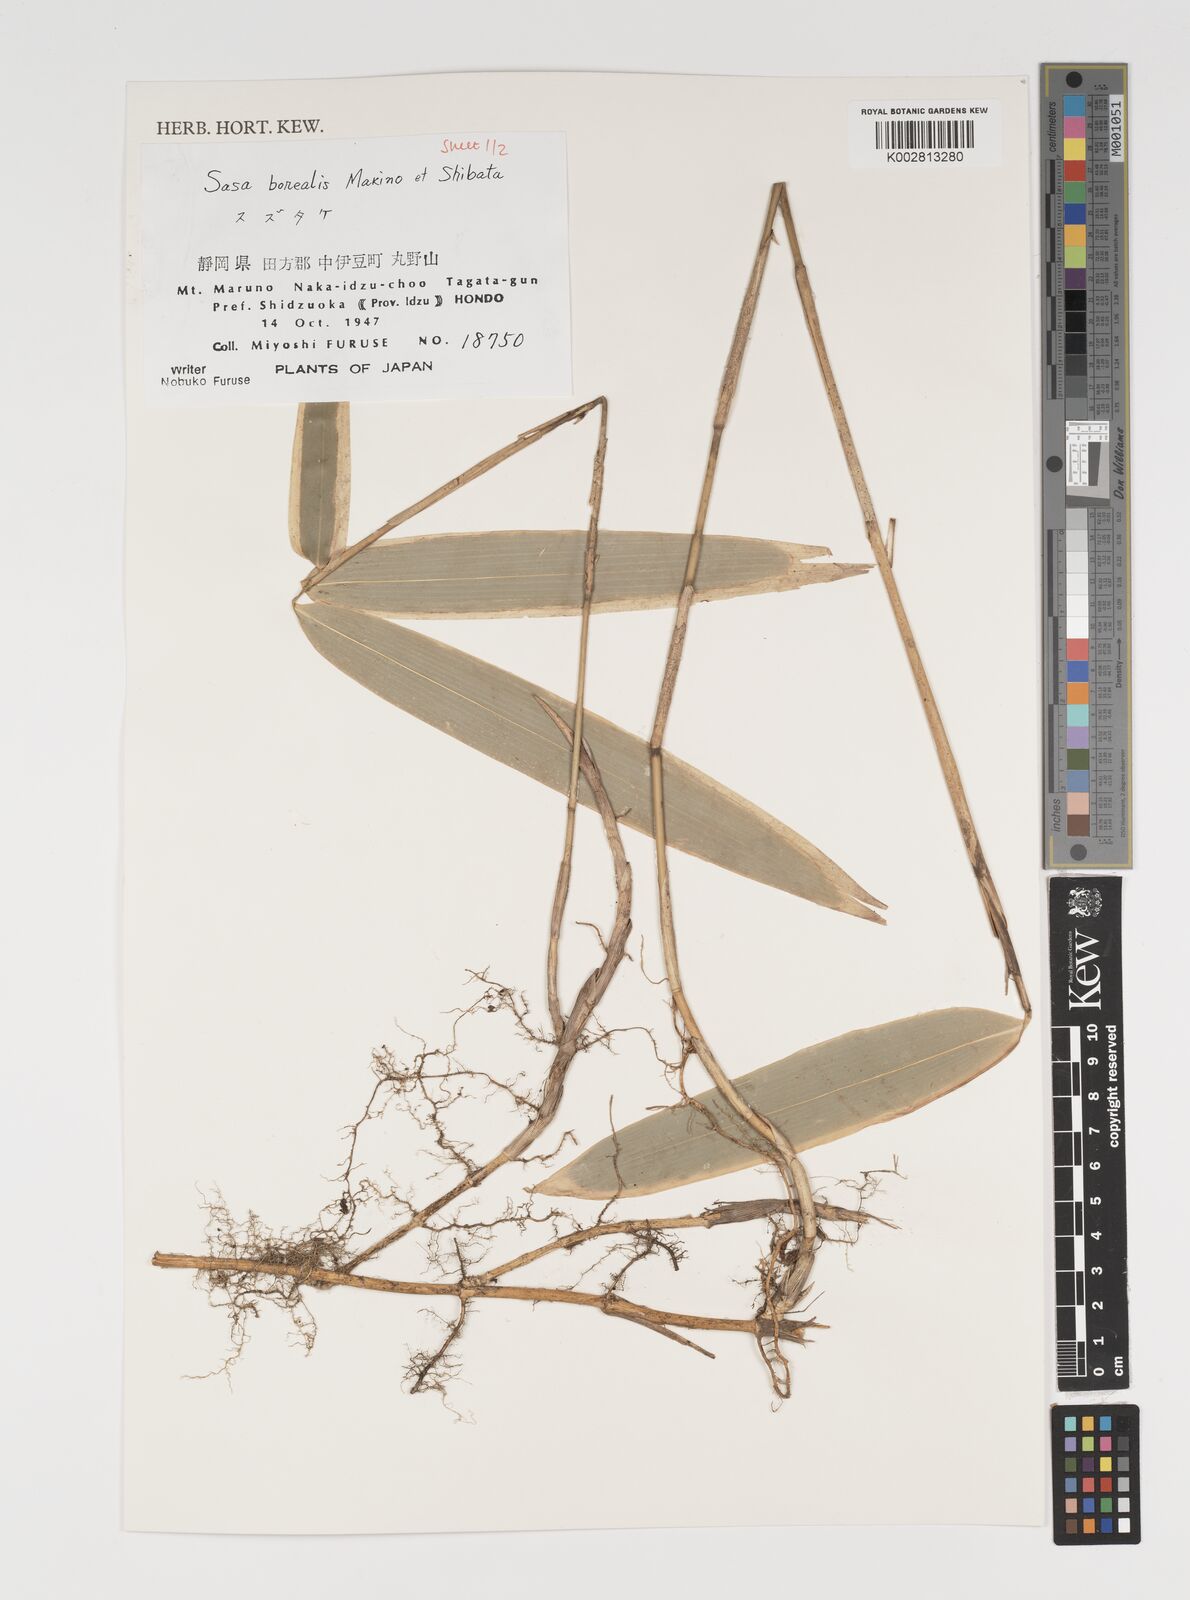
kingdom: Plantae
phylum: Tracheophyta
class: Liliopsida
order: Poales
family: Poaceae
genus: Sasamorpha
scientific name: Sasamorpha borealis
